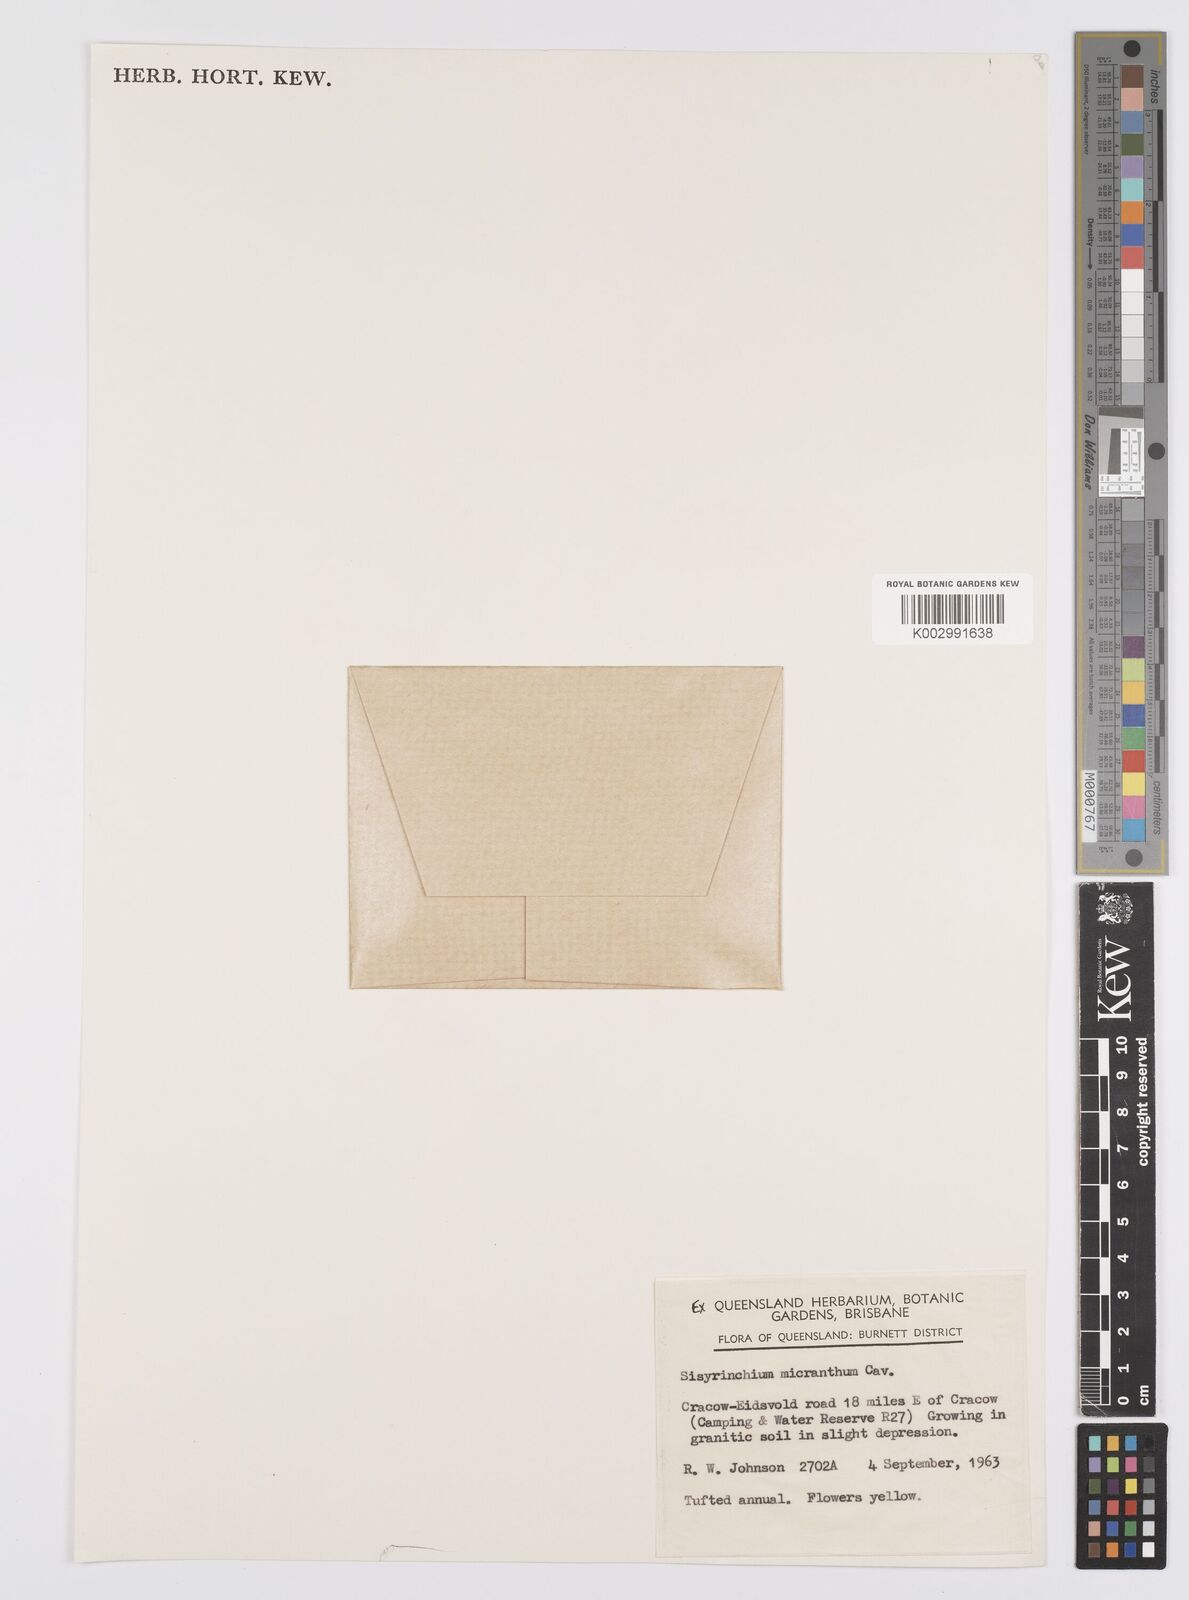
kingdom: Plantae
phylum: Tracheophyta
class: Liliopsida
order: Asparagales
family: Iridaceae
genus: Sisyrinchium
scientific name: Sisyrinchium micranthum
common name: Bermuda pigroot
